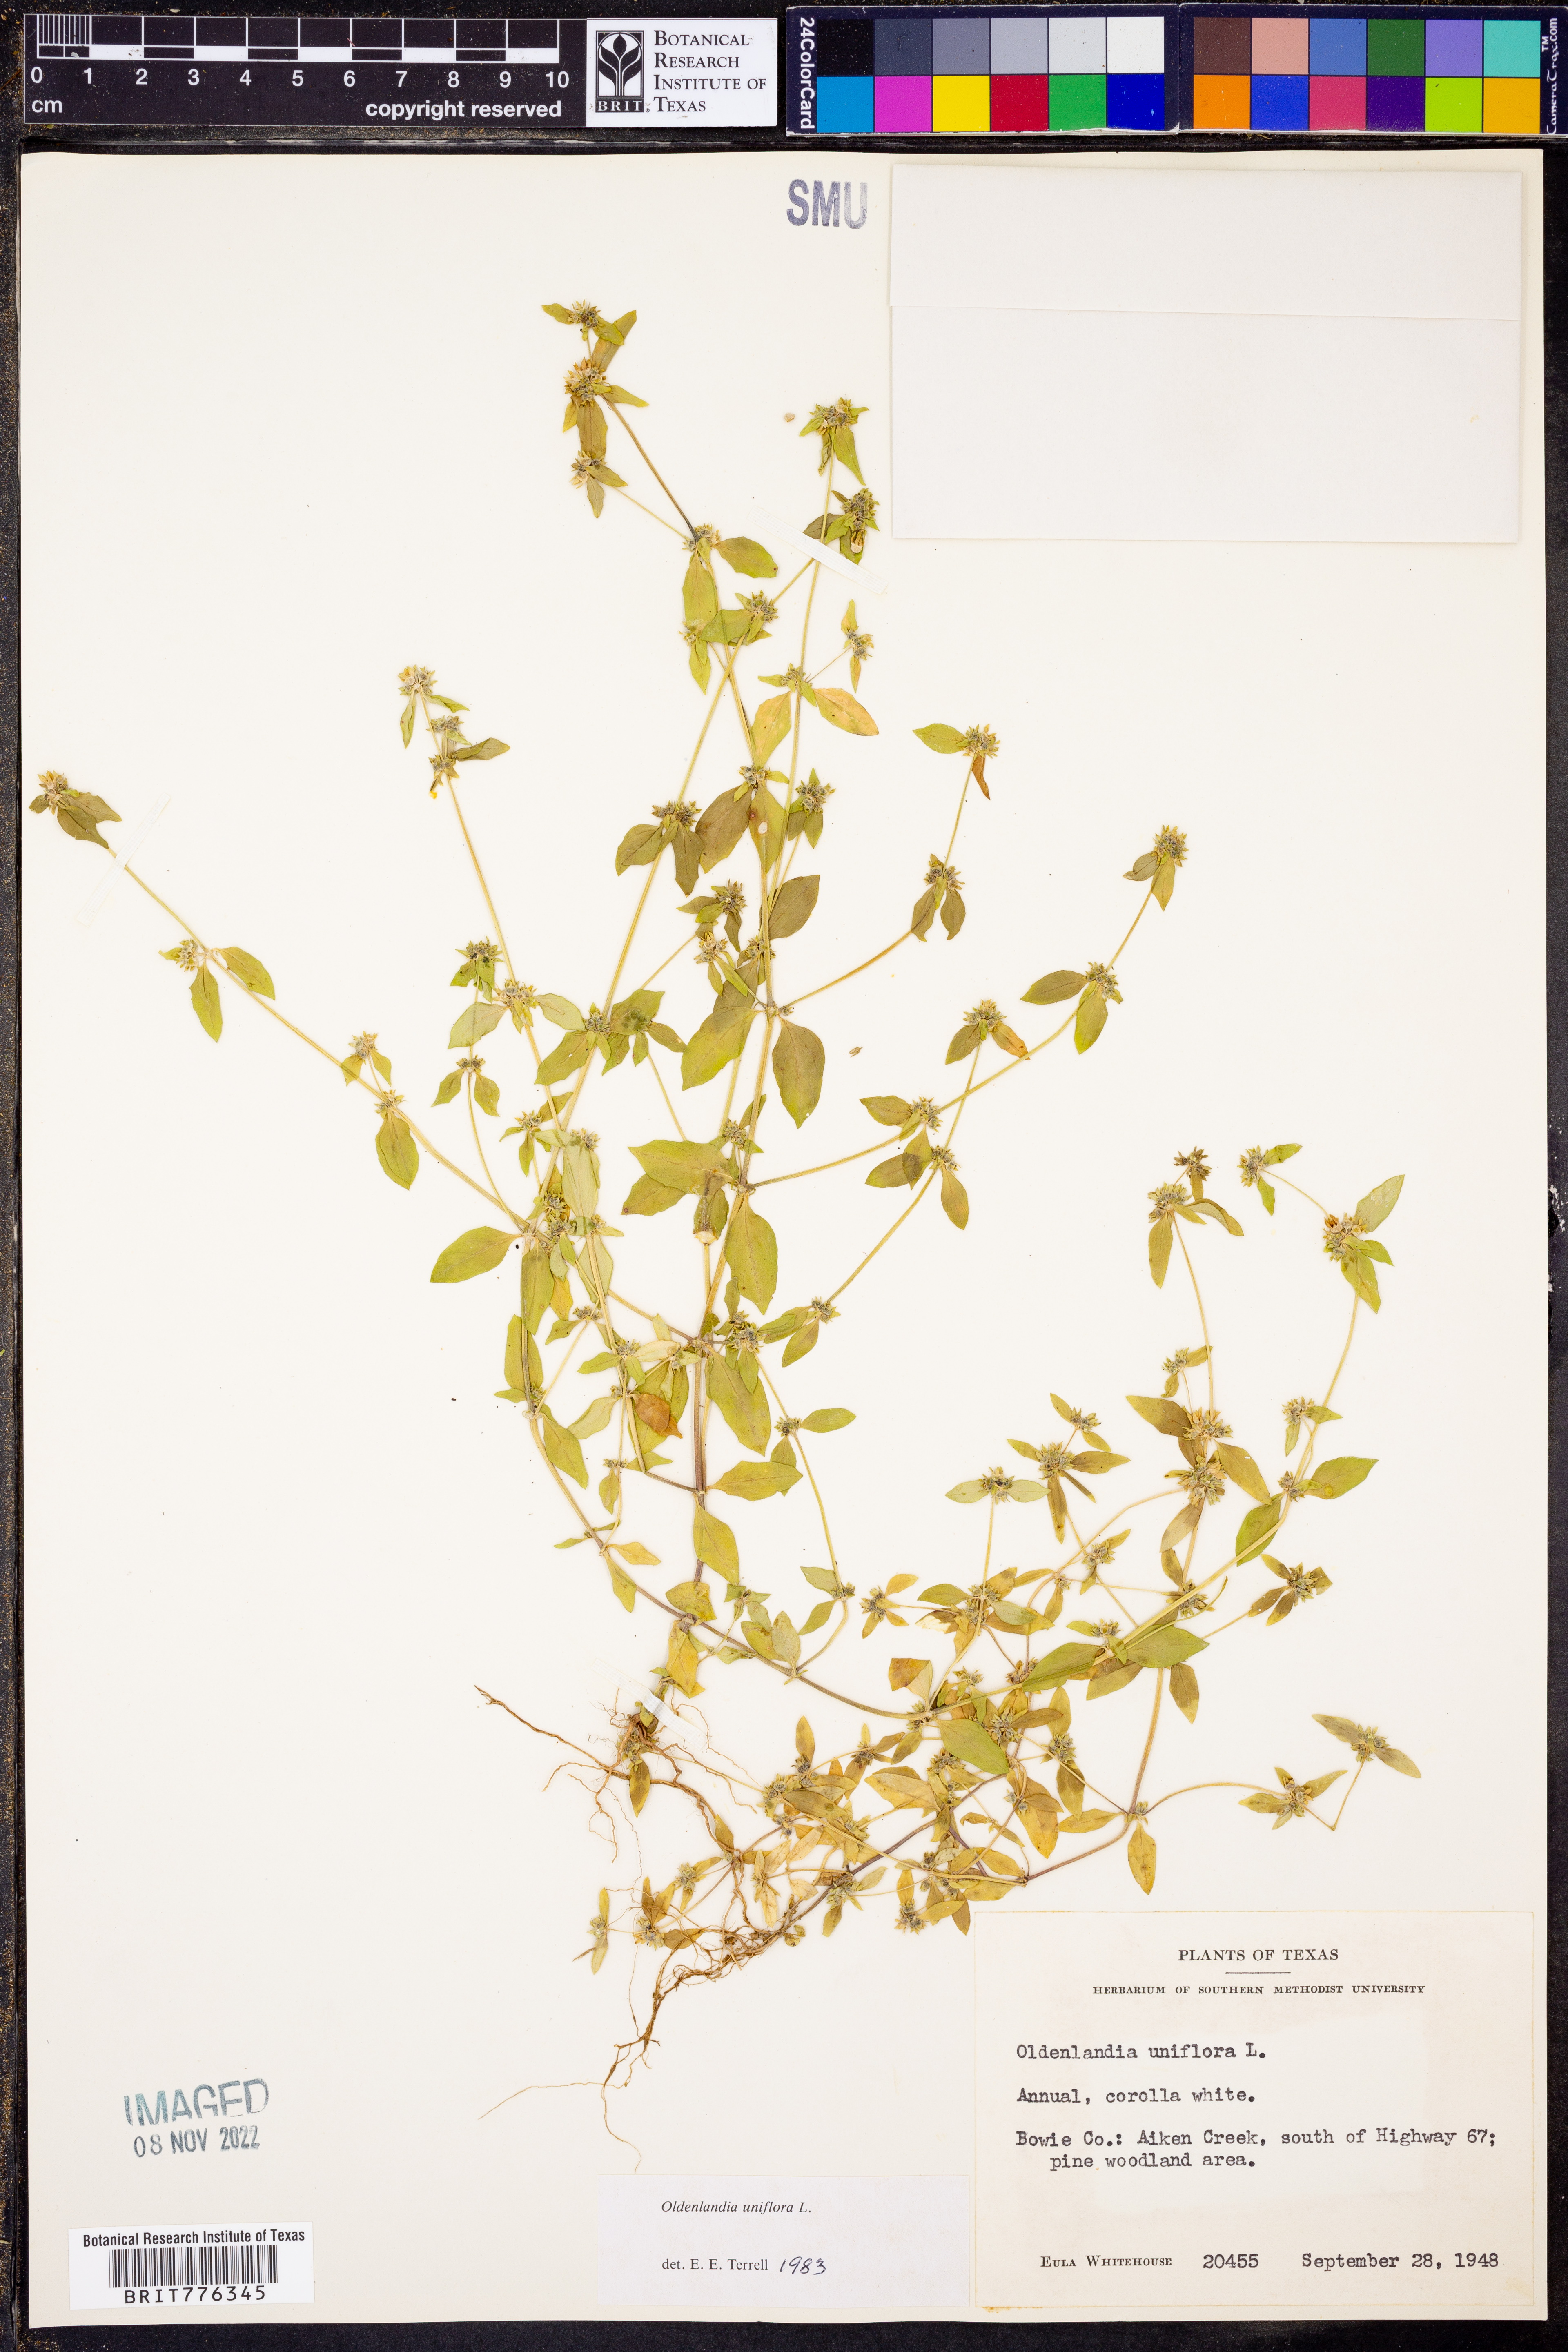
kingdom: Plantae
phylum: Tracheophyta
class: Magnoliopsida
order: Gentianales
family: Rubiaceae
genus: Edrastima
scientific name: Edrastima uniflora
